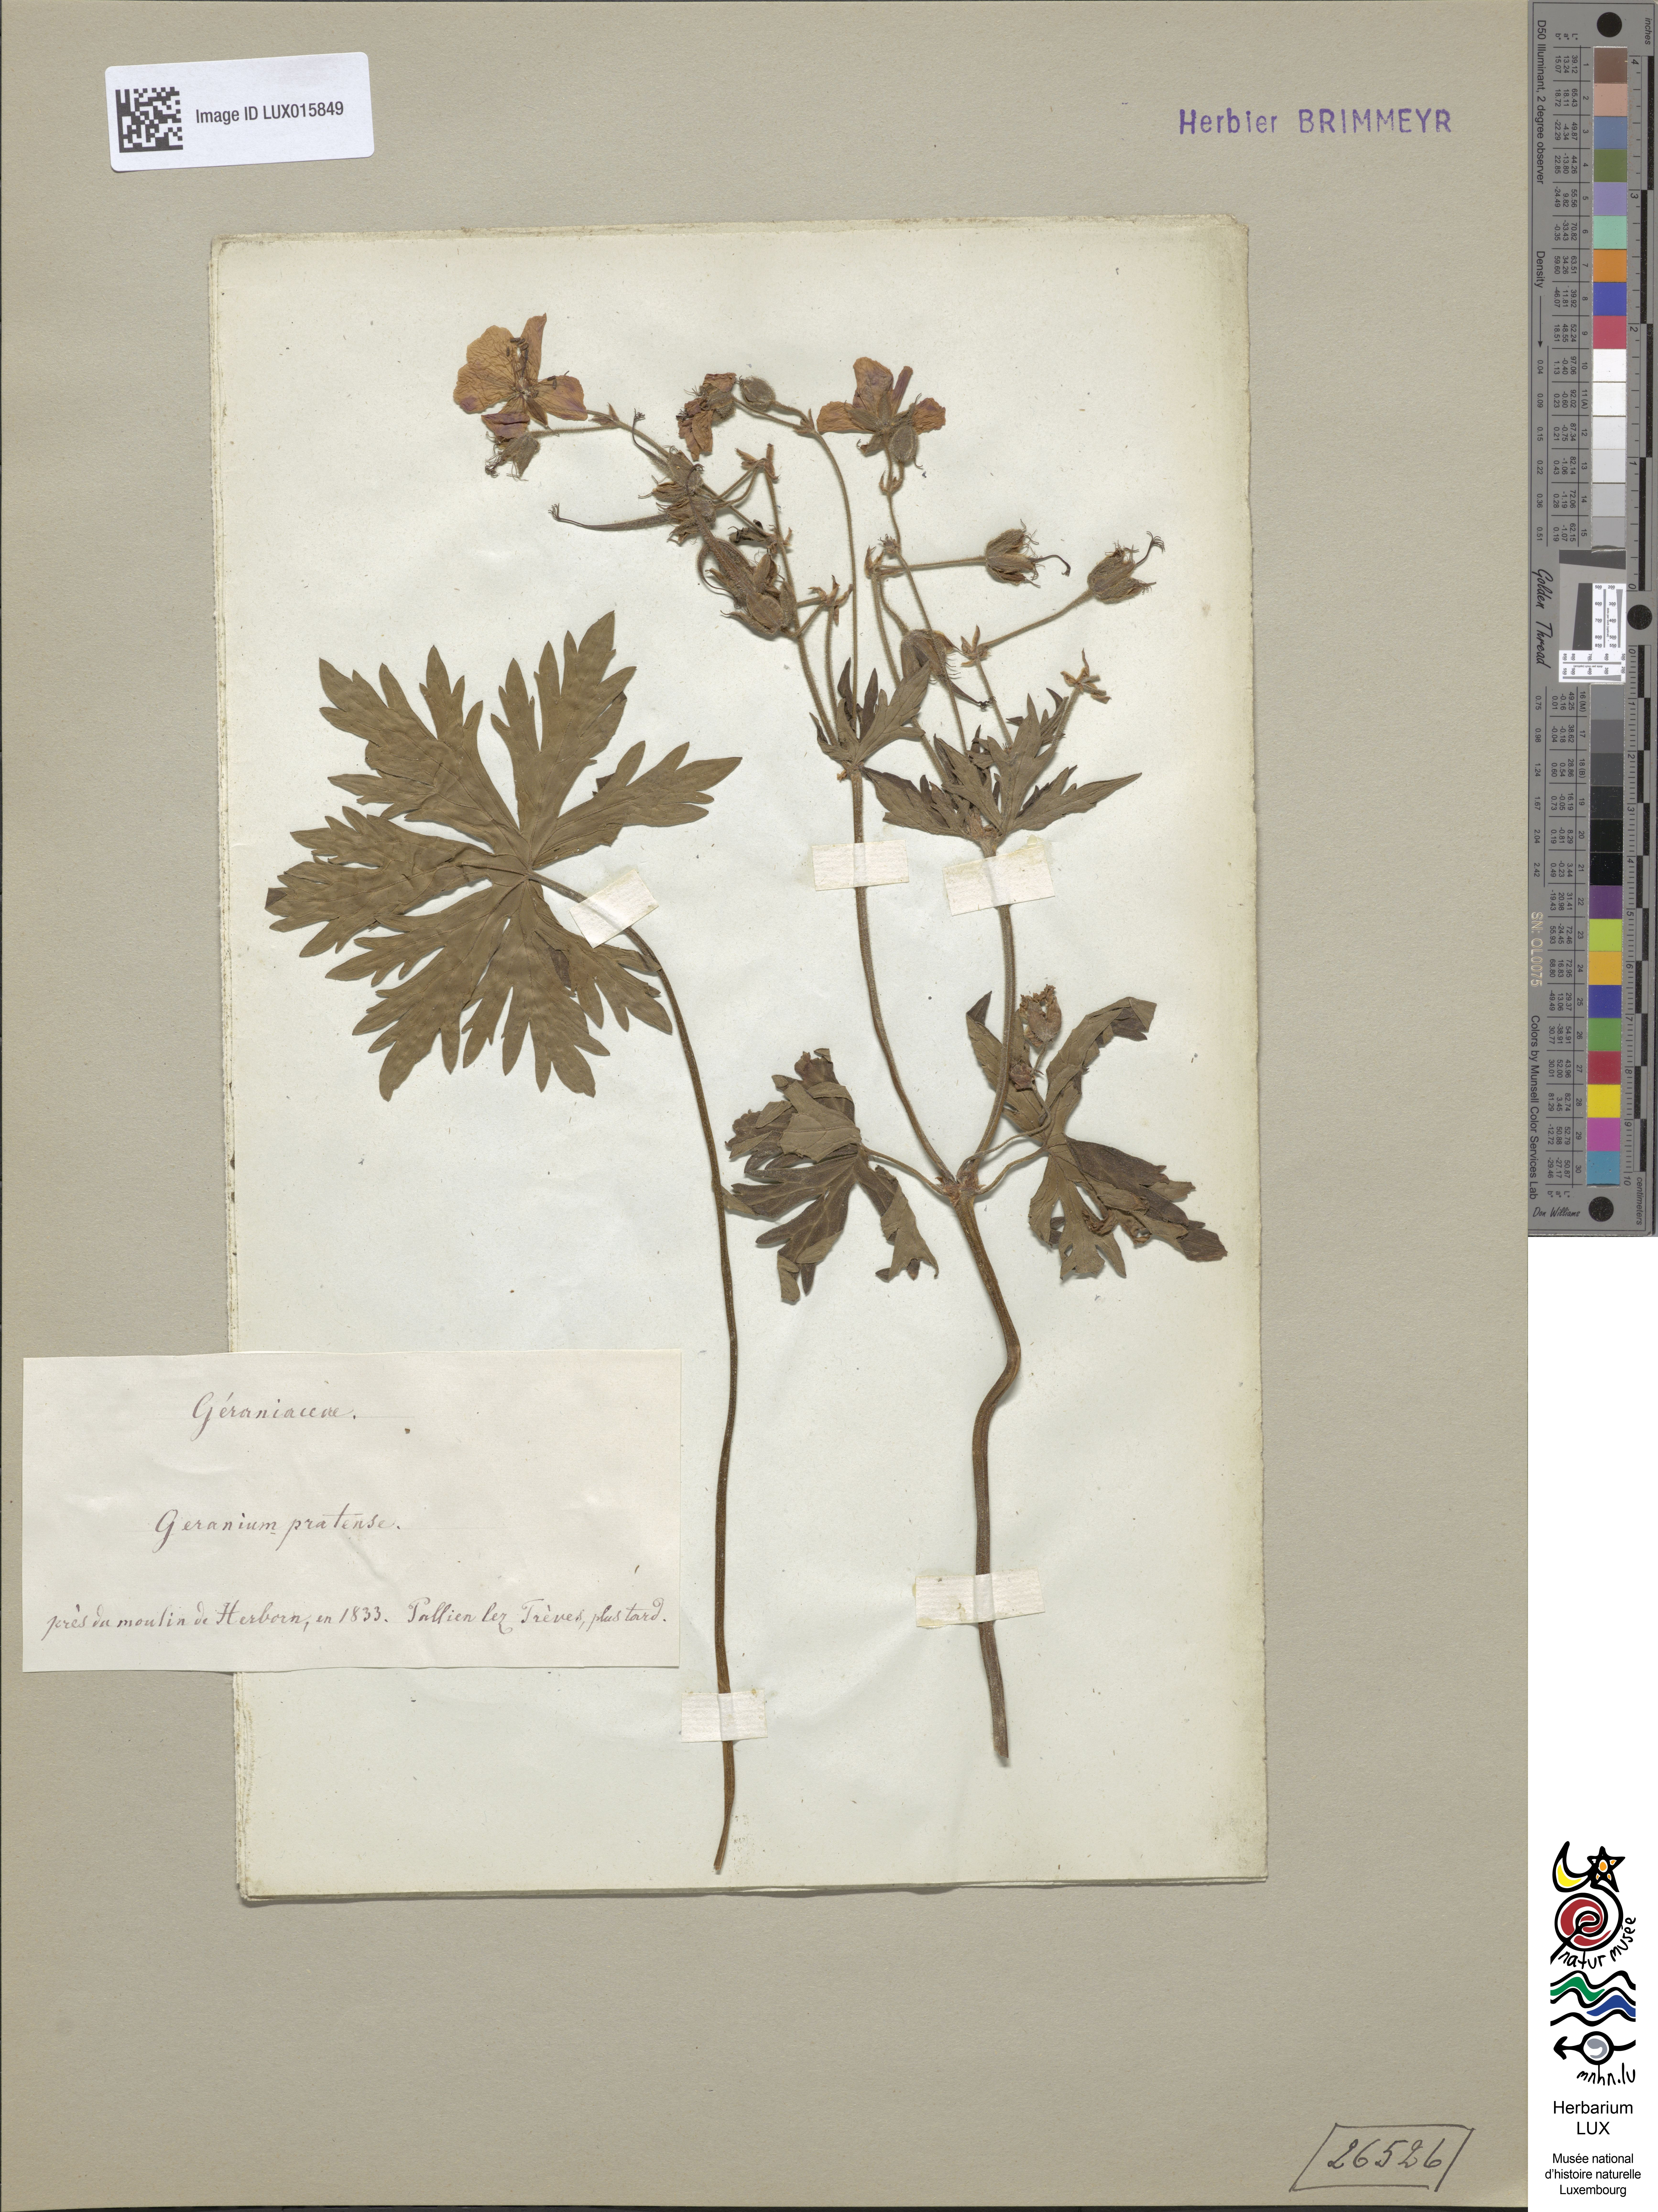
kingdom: Plantae
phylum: Tracheophyta
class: Magnoliopsida
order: Geraniales
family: Geraniaceae
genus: Geranium
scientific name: Geranium pratense
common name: Meadow crane's-bill
